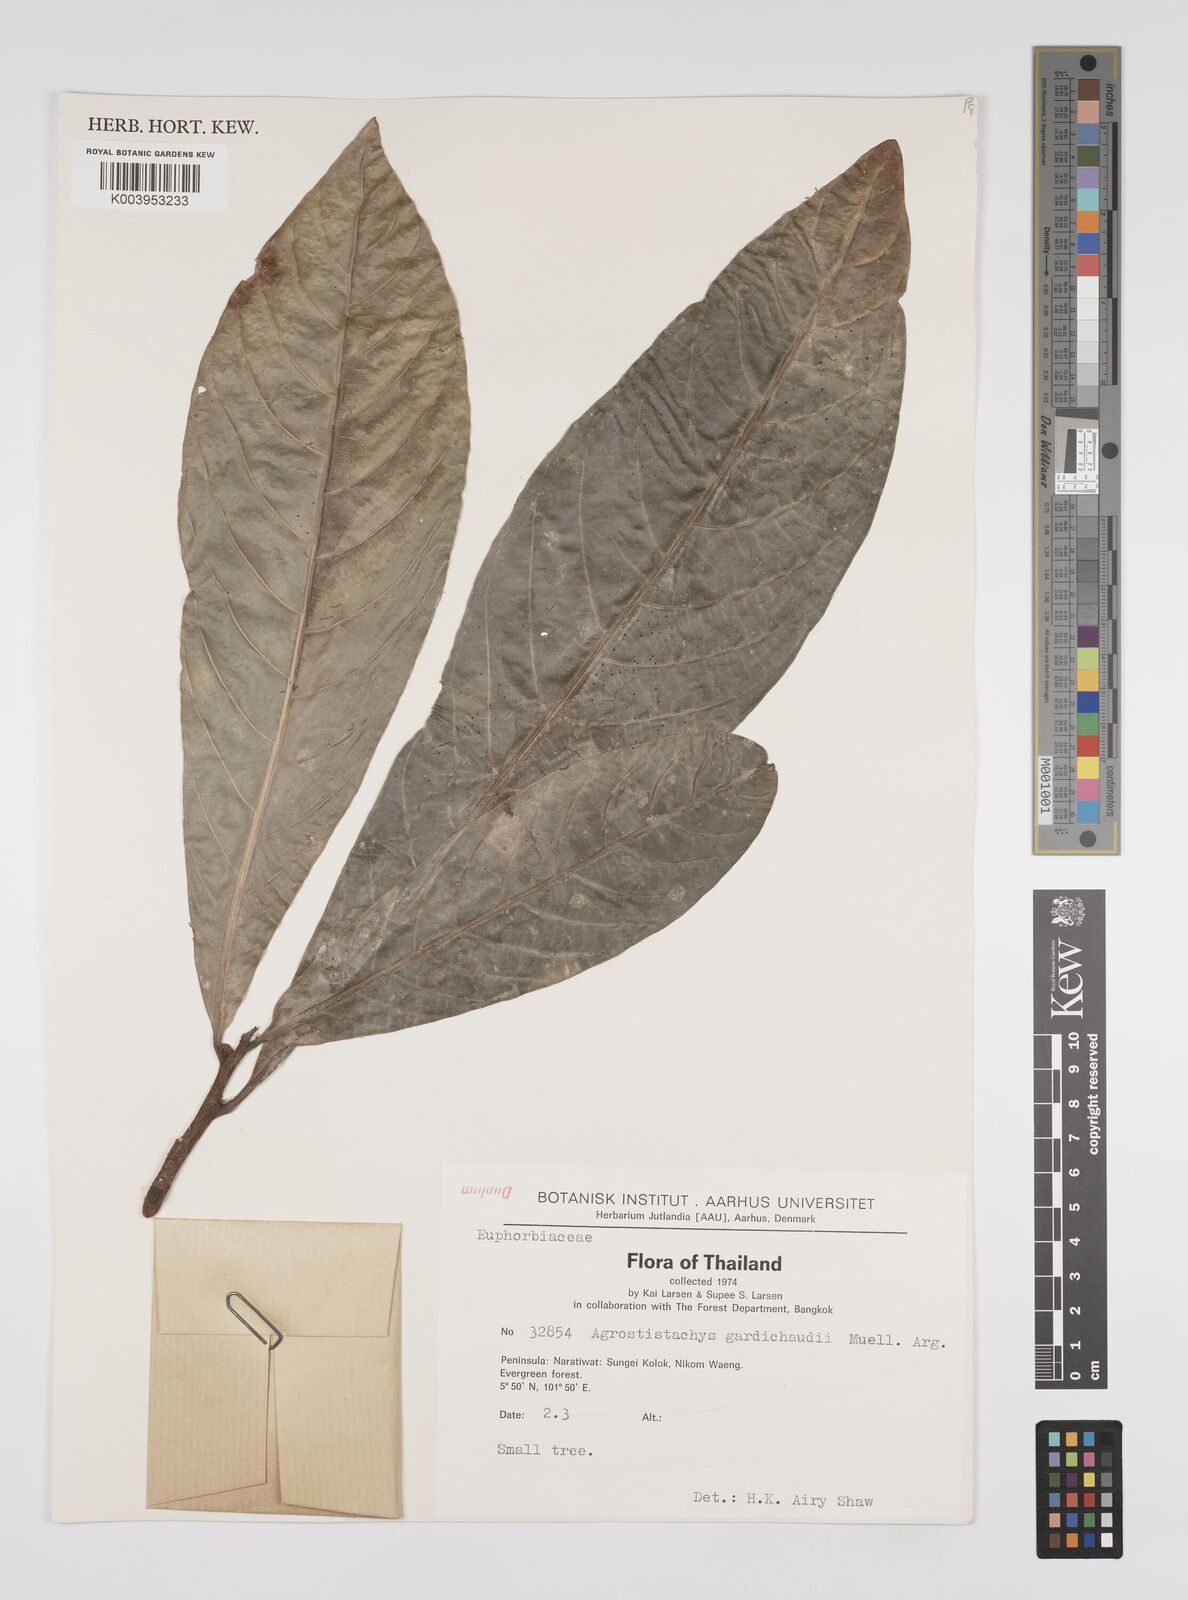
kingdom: Plantae
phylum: Tracheophyta
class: Magnoliopsida
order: Malpighiales
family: Euphorbiaceae
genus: Agrostistachys
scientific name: Agrostistachys gaudichaudii
